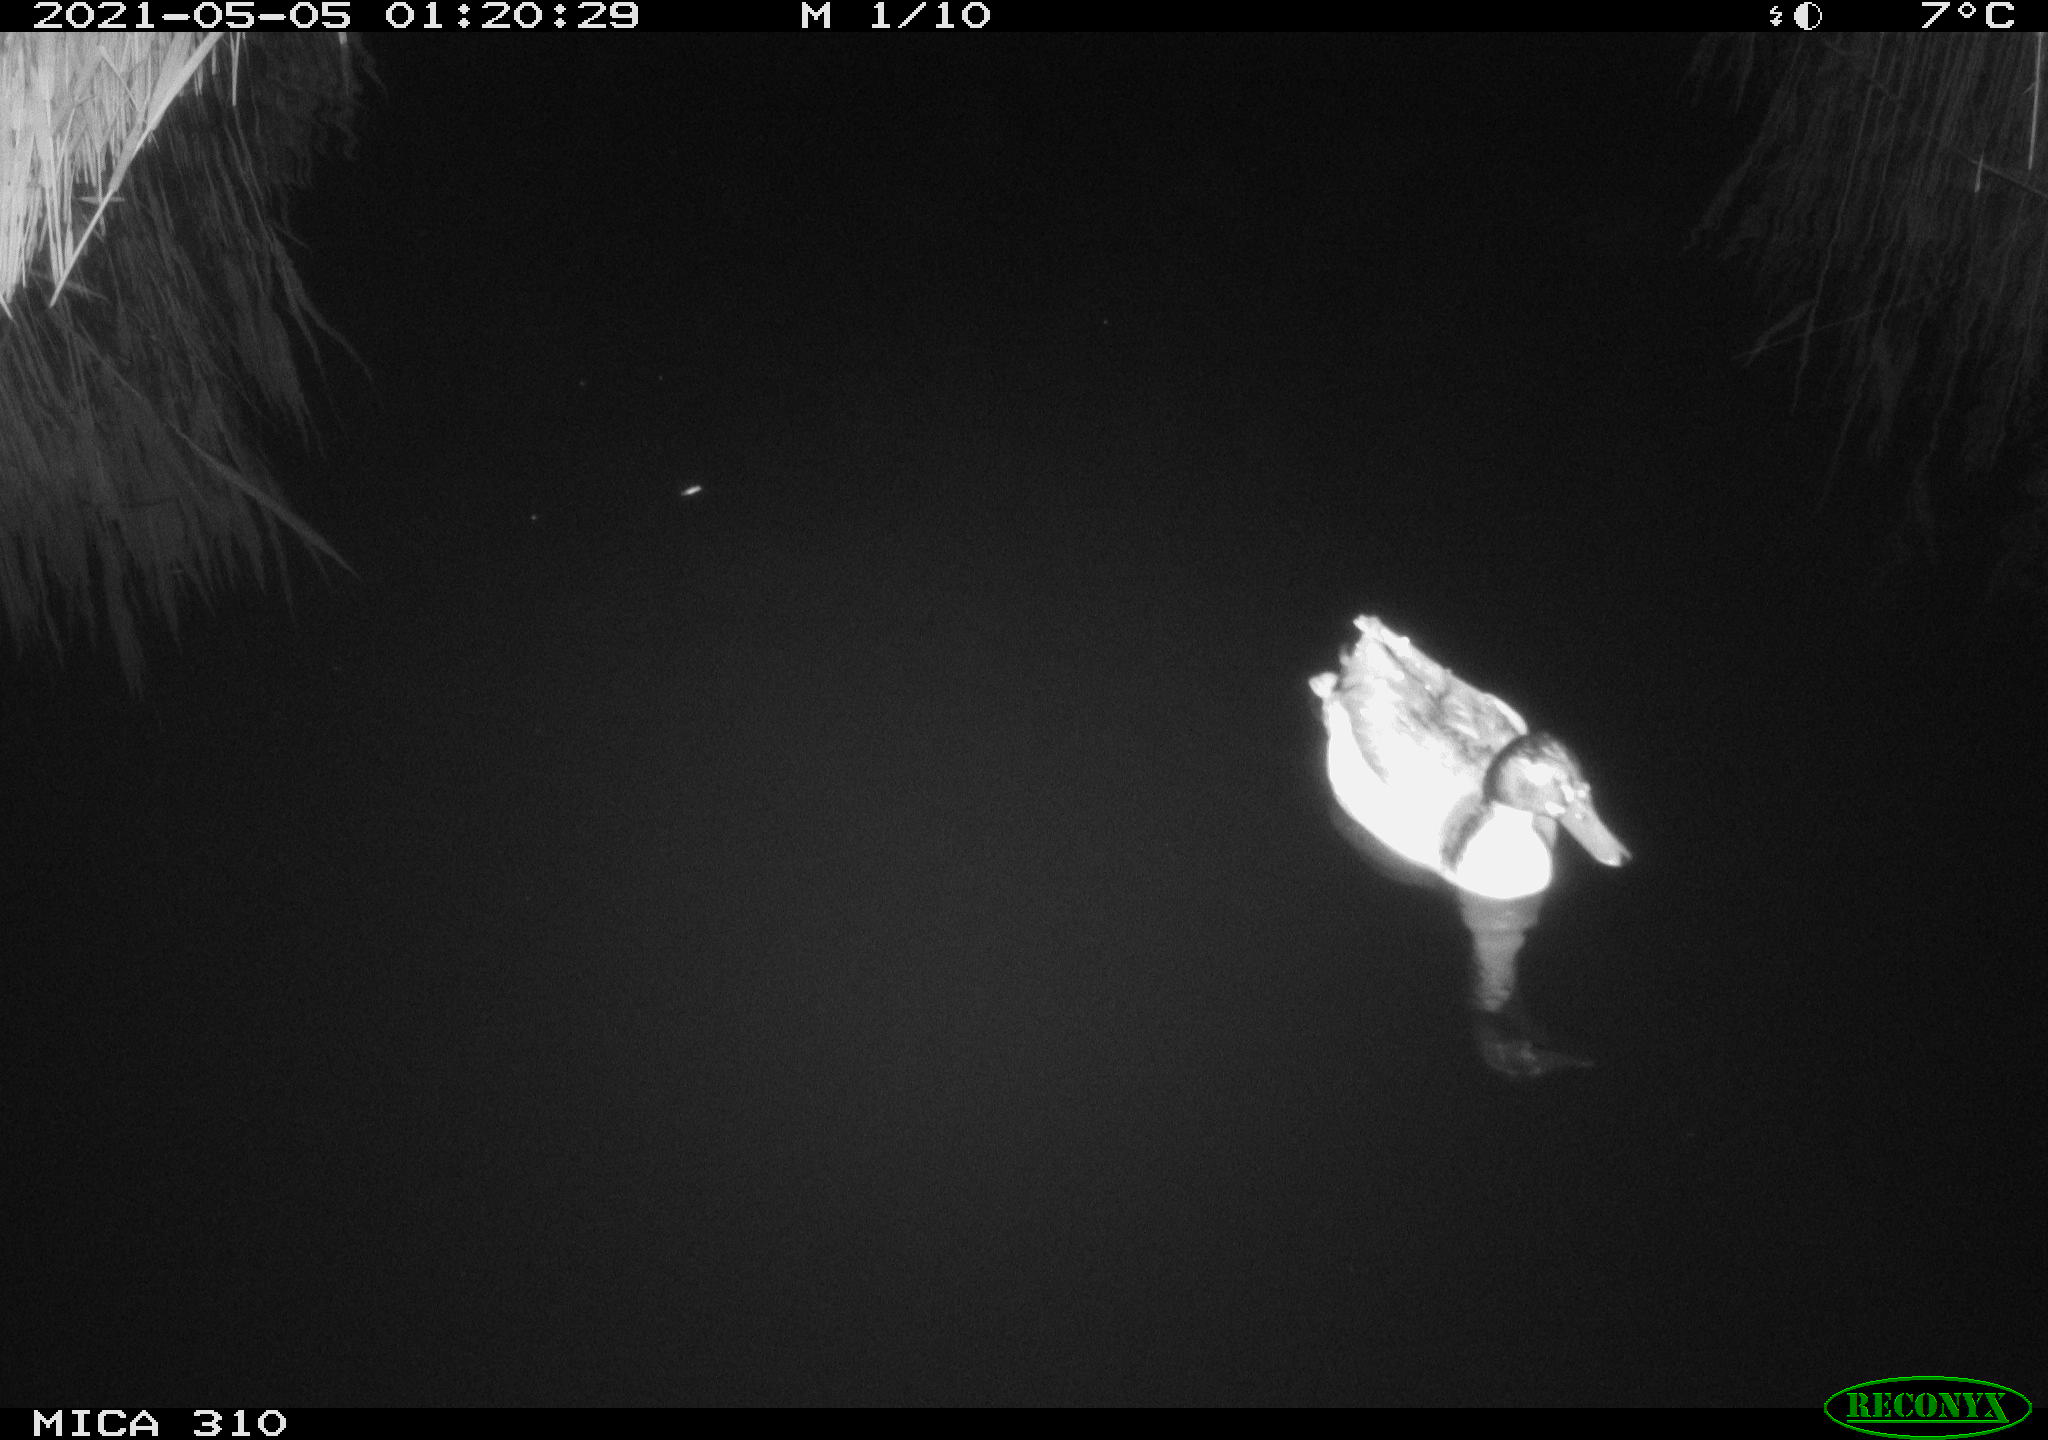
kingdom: Animalia
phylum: Chordata
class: Aves
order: Anseriformes
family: Anatidae
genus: Anas
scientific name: Anas platyrhynchos
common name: Mallard
